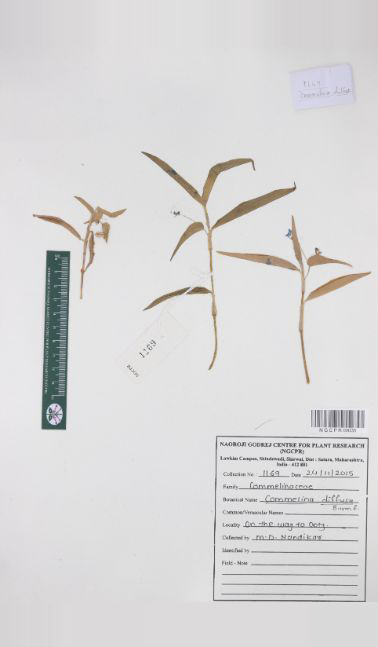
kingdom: Plantae
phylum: Tracheophyta
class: Liliopsida
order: Commelinales
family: Commelinaceae
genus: Commelina
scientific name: Commelina diffusa
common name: Climbing dayflower
